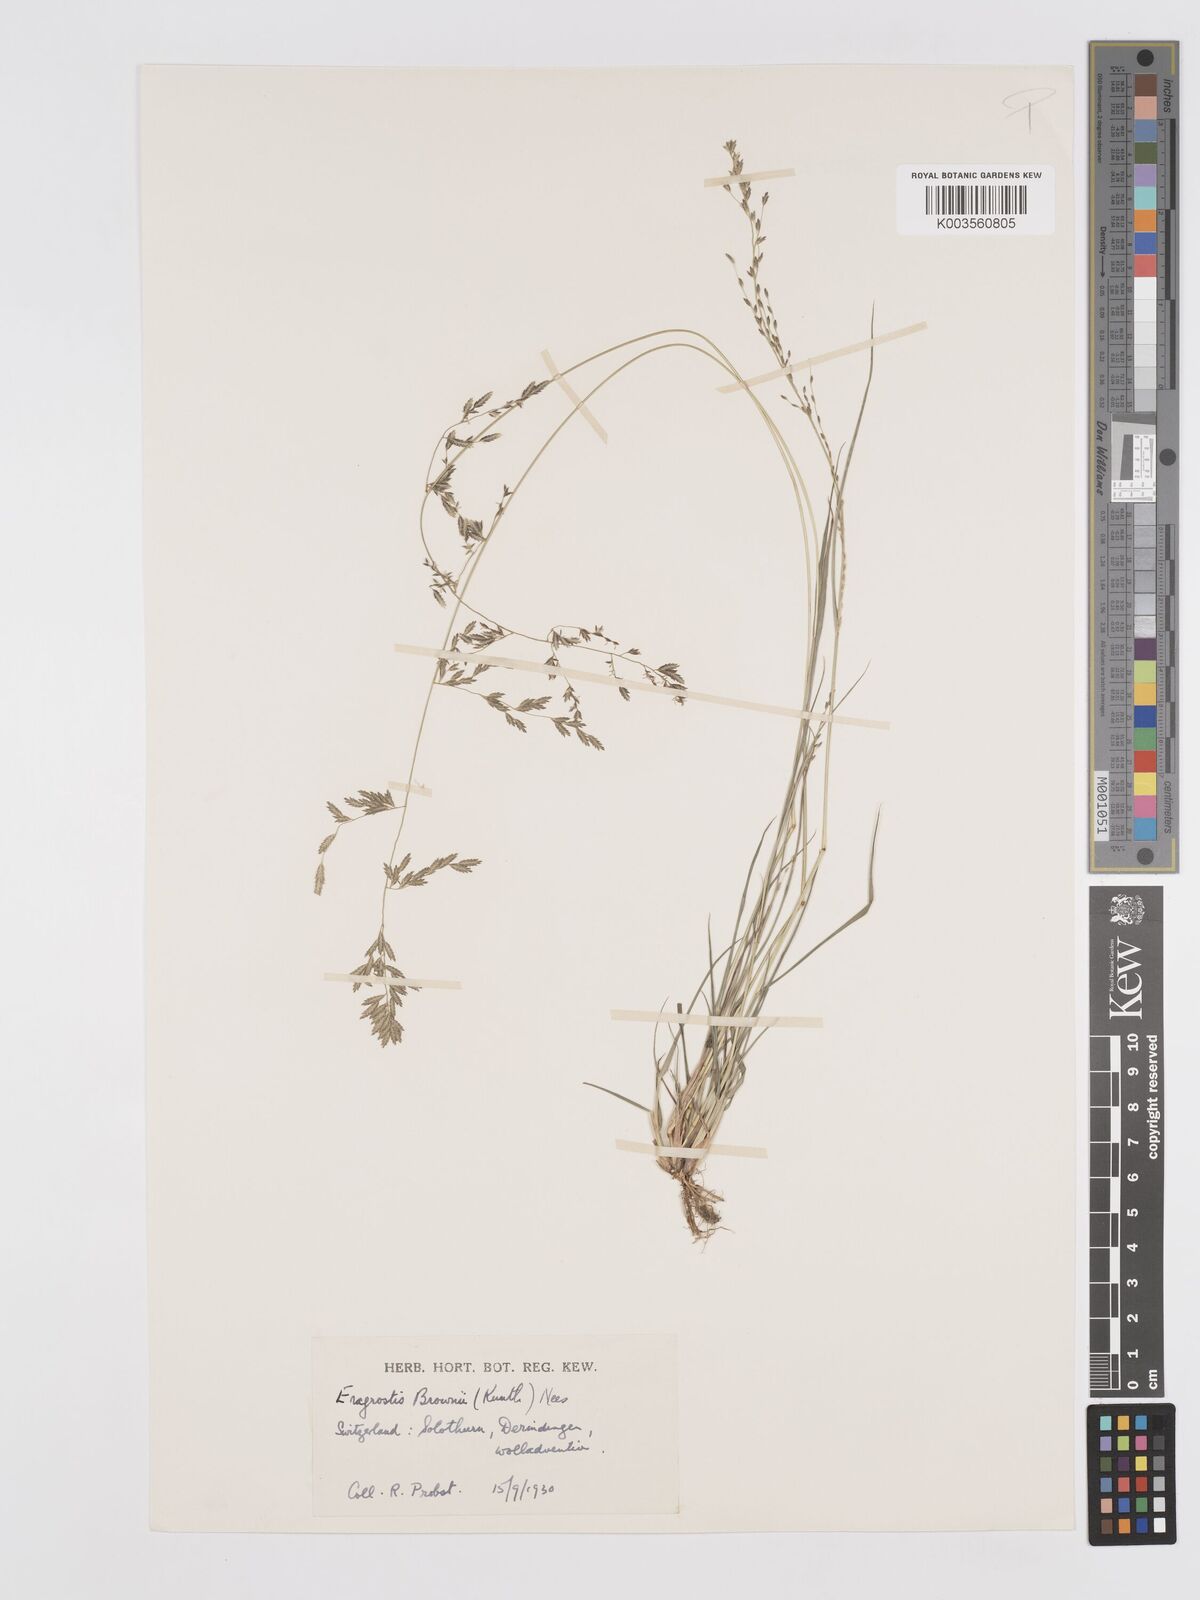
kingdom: Plantae
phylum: Tracheophyta
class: Liliopsida
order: Poales
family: Poaceae
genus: Eragrostis
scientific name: Eragrostis brownii
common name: Lovegrass
